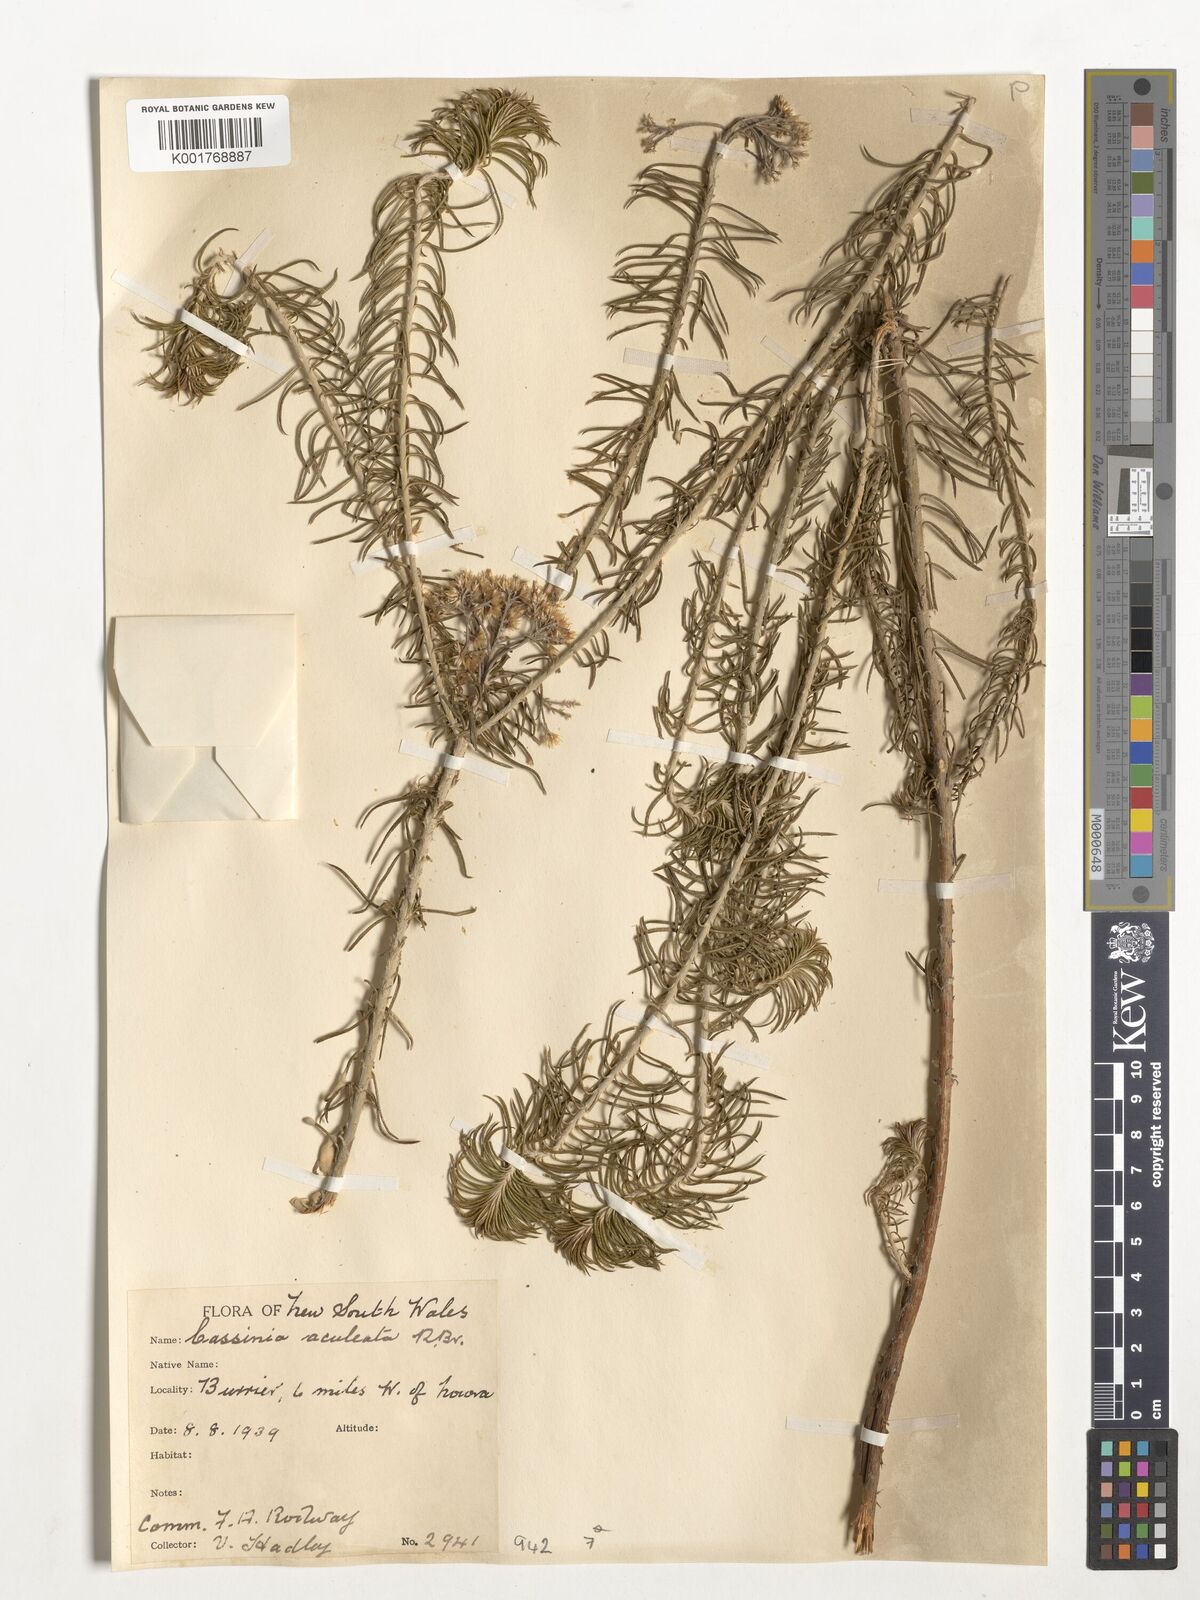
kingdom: Plantae
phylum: Tracheophyta
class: Magnoliopsida
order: Asterales
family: Asteraceae
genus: Cassinia
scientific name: Cassinia aculeata
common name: Australian tauhinu
